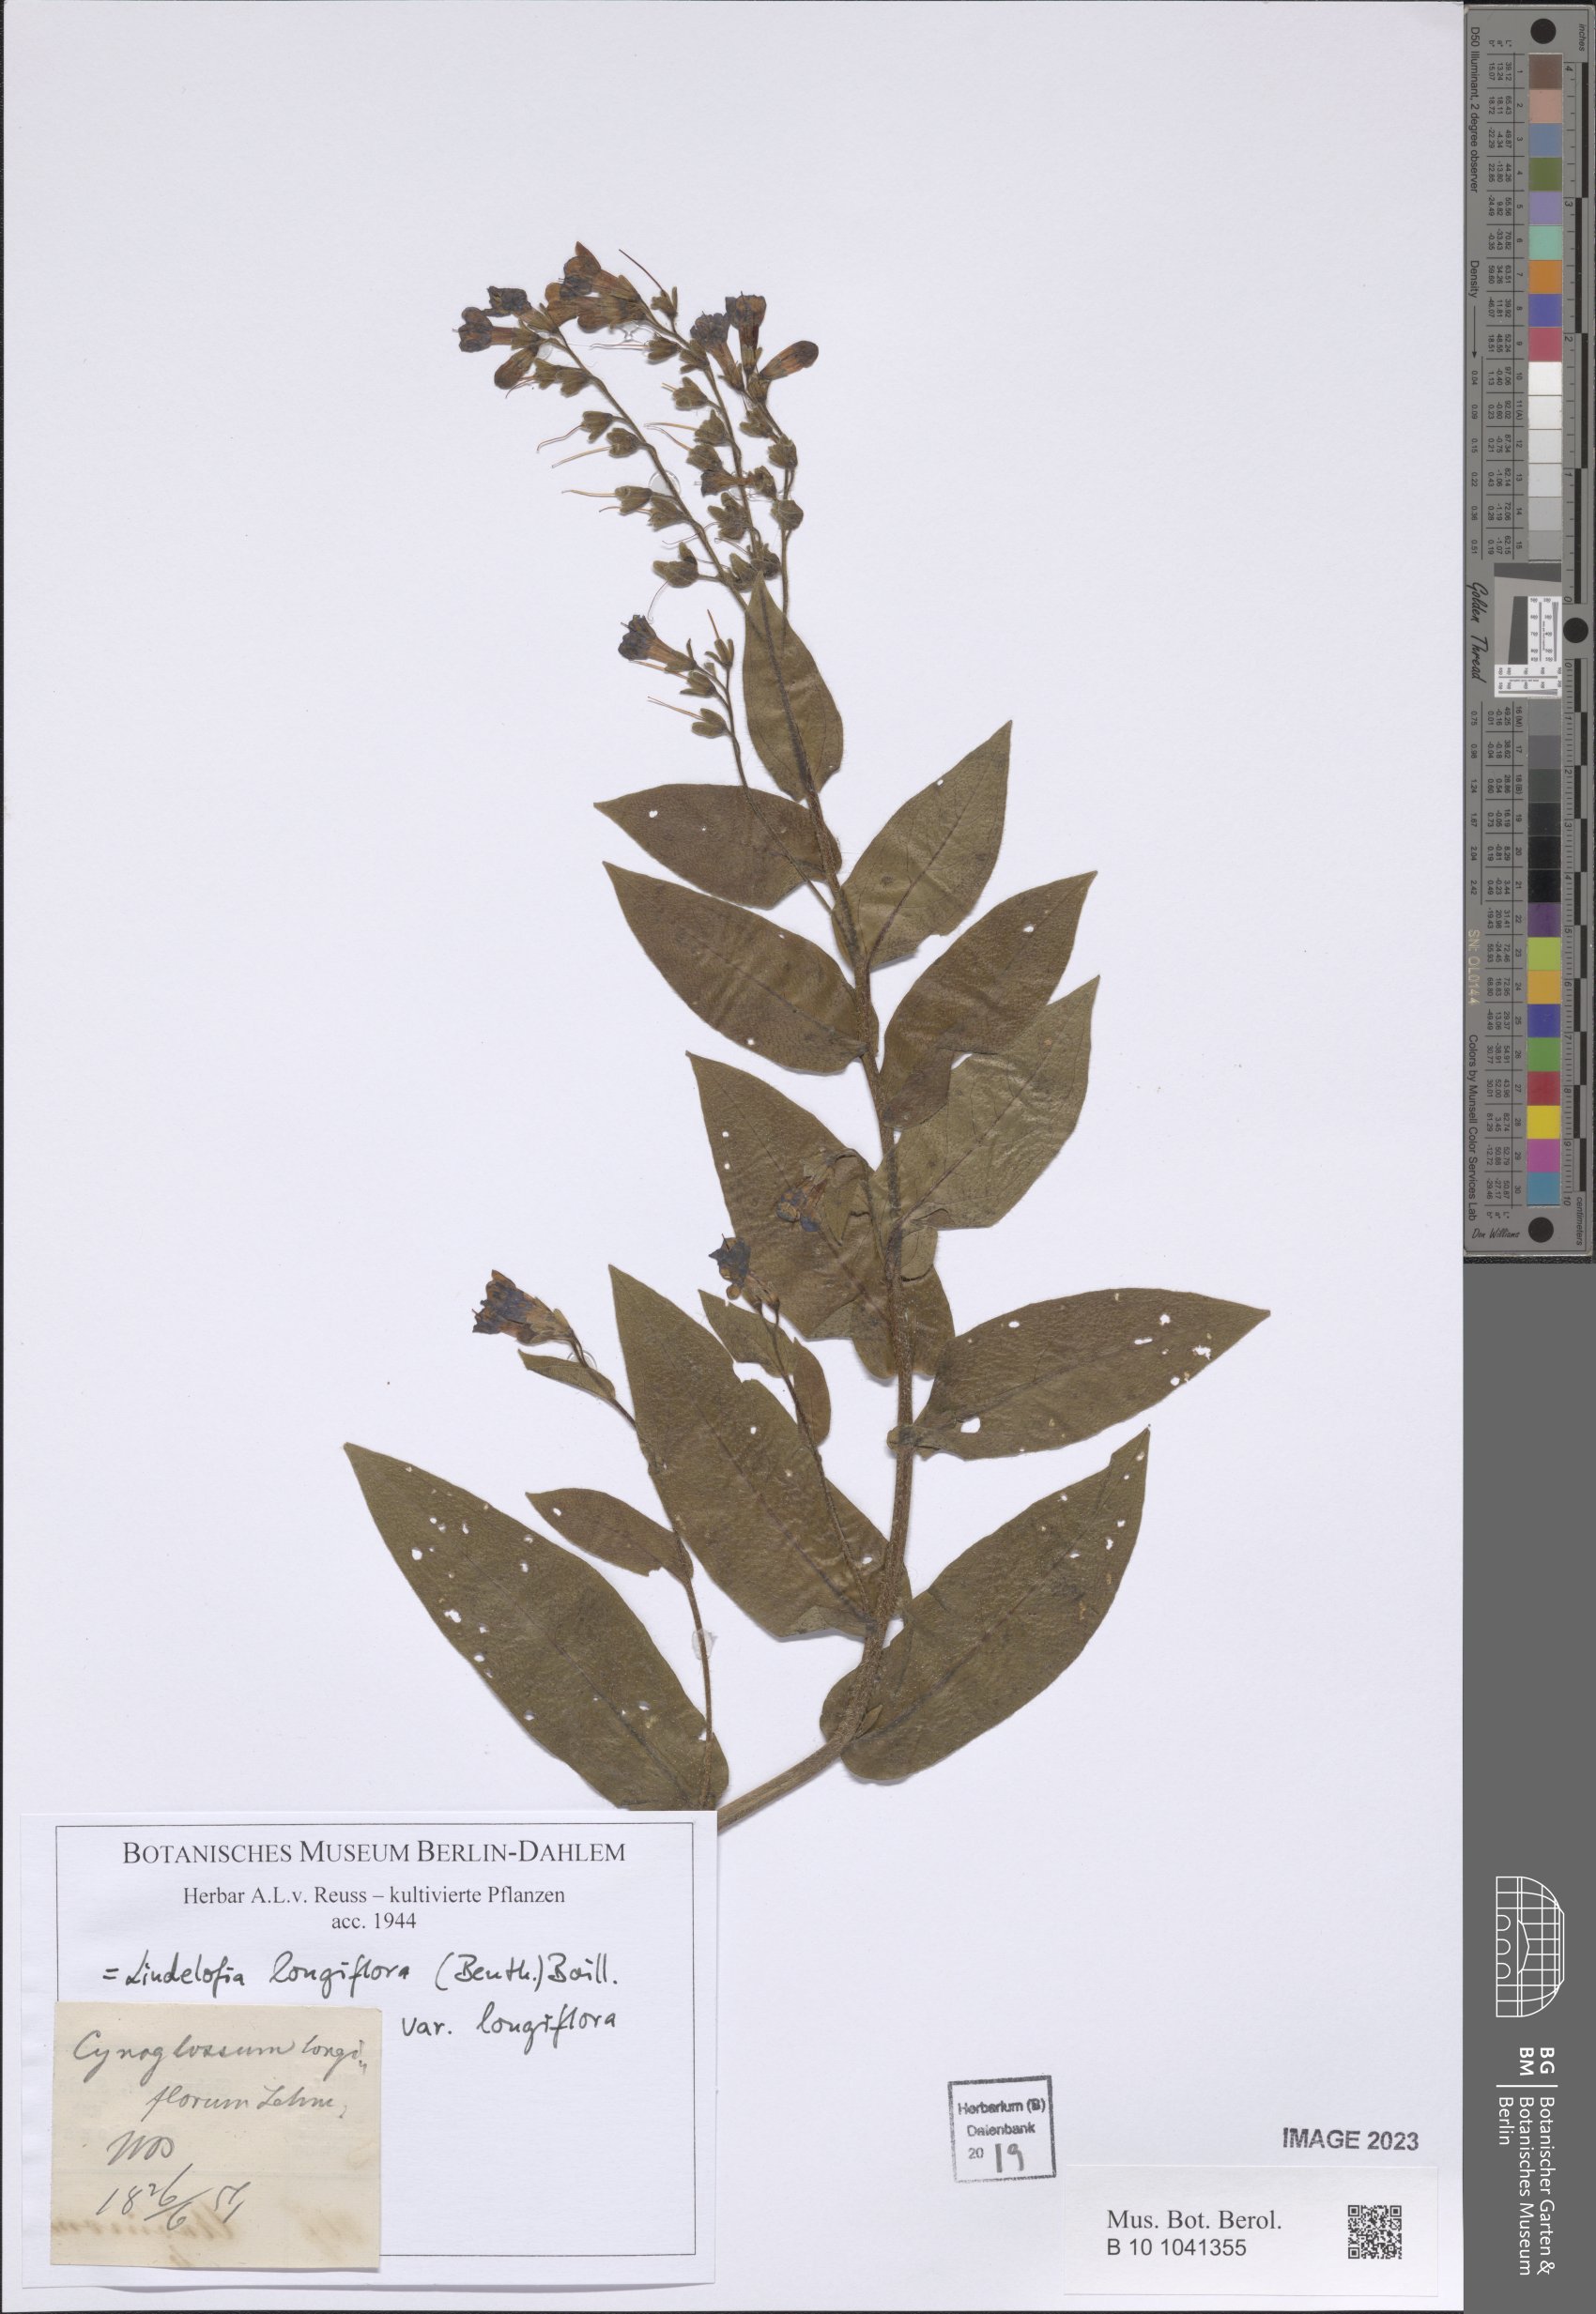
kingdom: Plantae
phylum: Tracheophyta
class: Magnoliopsida
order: Boraginales
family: Boraginaceae
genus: Lindelofia
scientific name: Lindelofia longiflora
